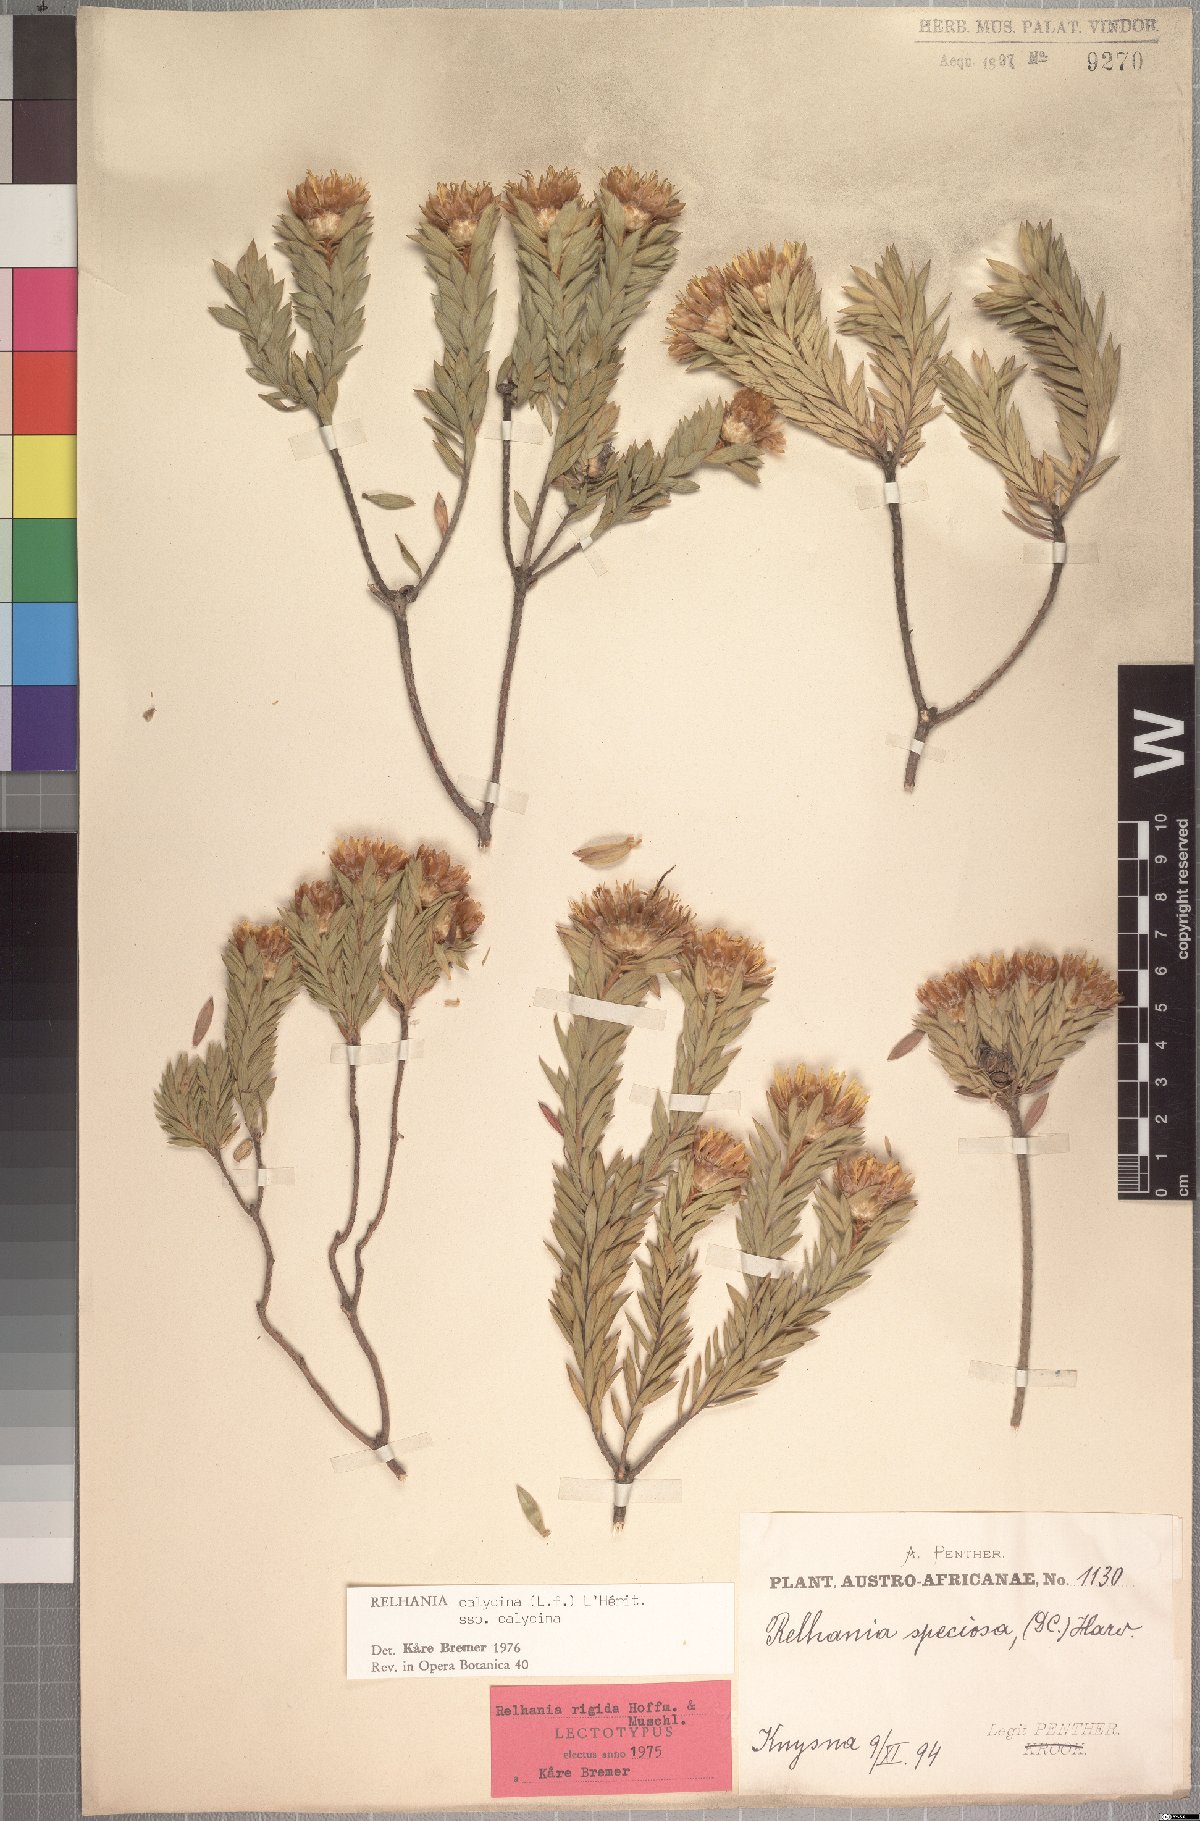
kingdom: Plantae
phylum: Tracheophyta
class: Magnoliopsida
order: Asterales
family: Asteraceae
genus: Oedera
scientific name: Oedera calycina
